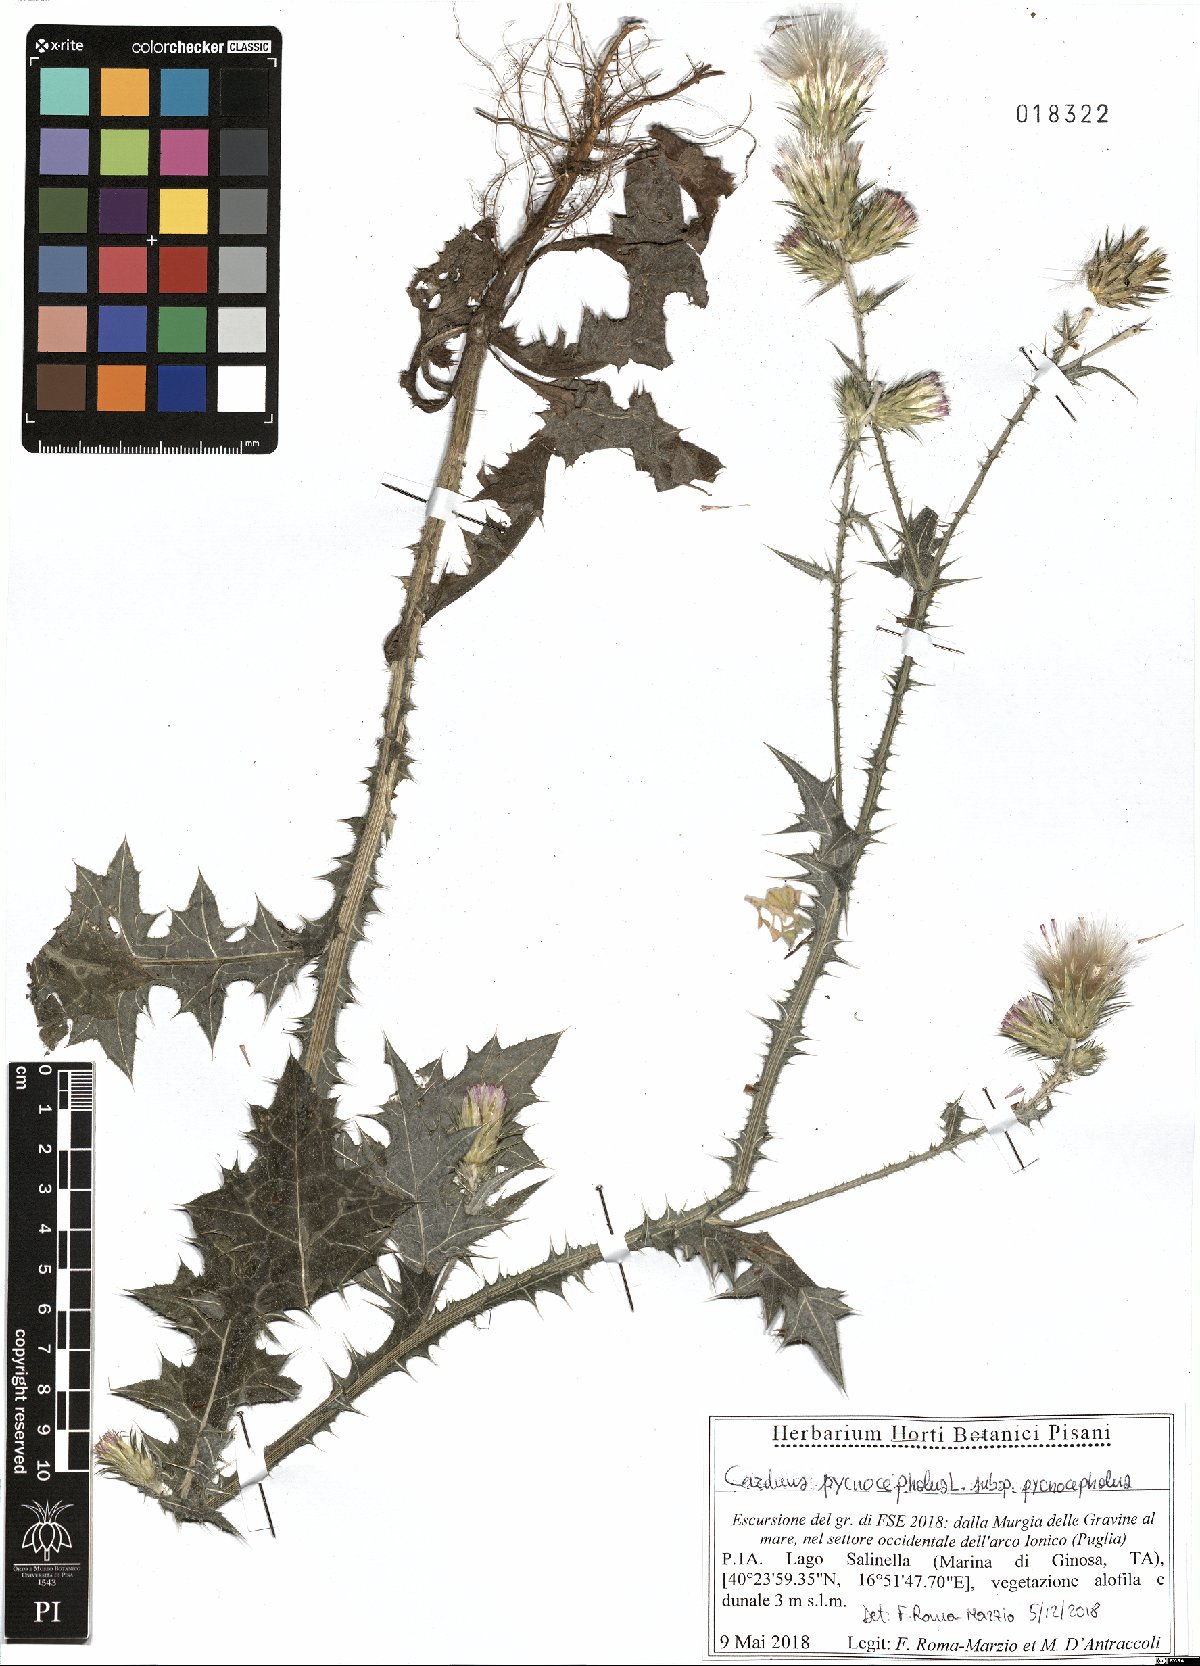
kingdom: Plantae
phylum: Tracheophyta
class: Magnoliopsida
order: Asterales
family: Asteraceae
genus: Carduus
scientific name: Carduus pycnocephalus
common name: Plymouth thistle
